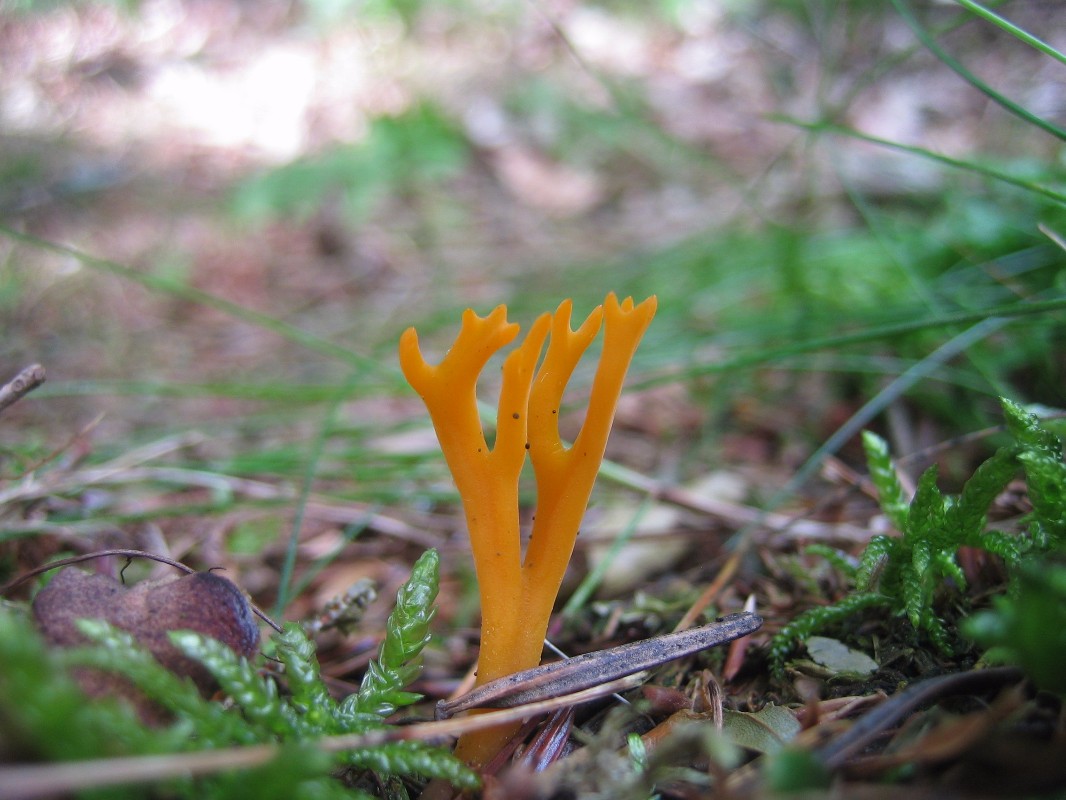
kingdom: Fungi
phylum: Basidiomycota
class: Dacrymycetes
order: Dacrymycetales
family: Dacrymycetaceae
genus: Calocera
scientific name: Calocera viscosa
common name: almindelig guldgaffel
